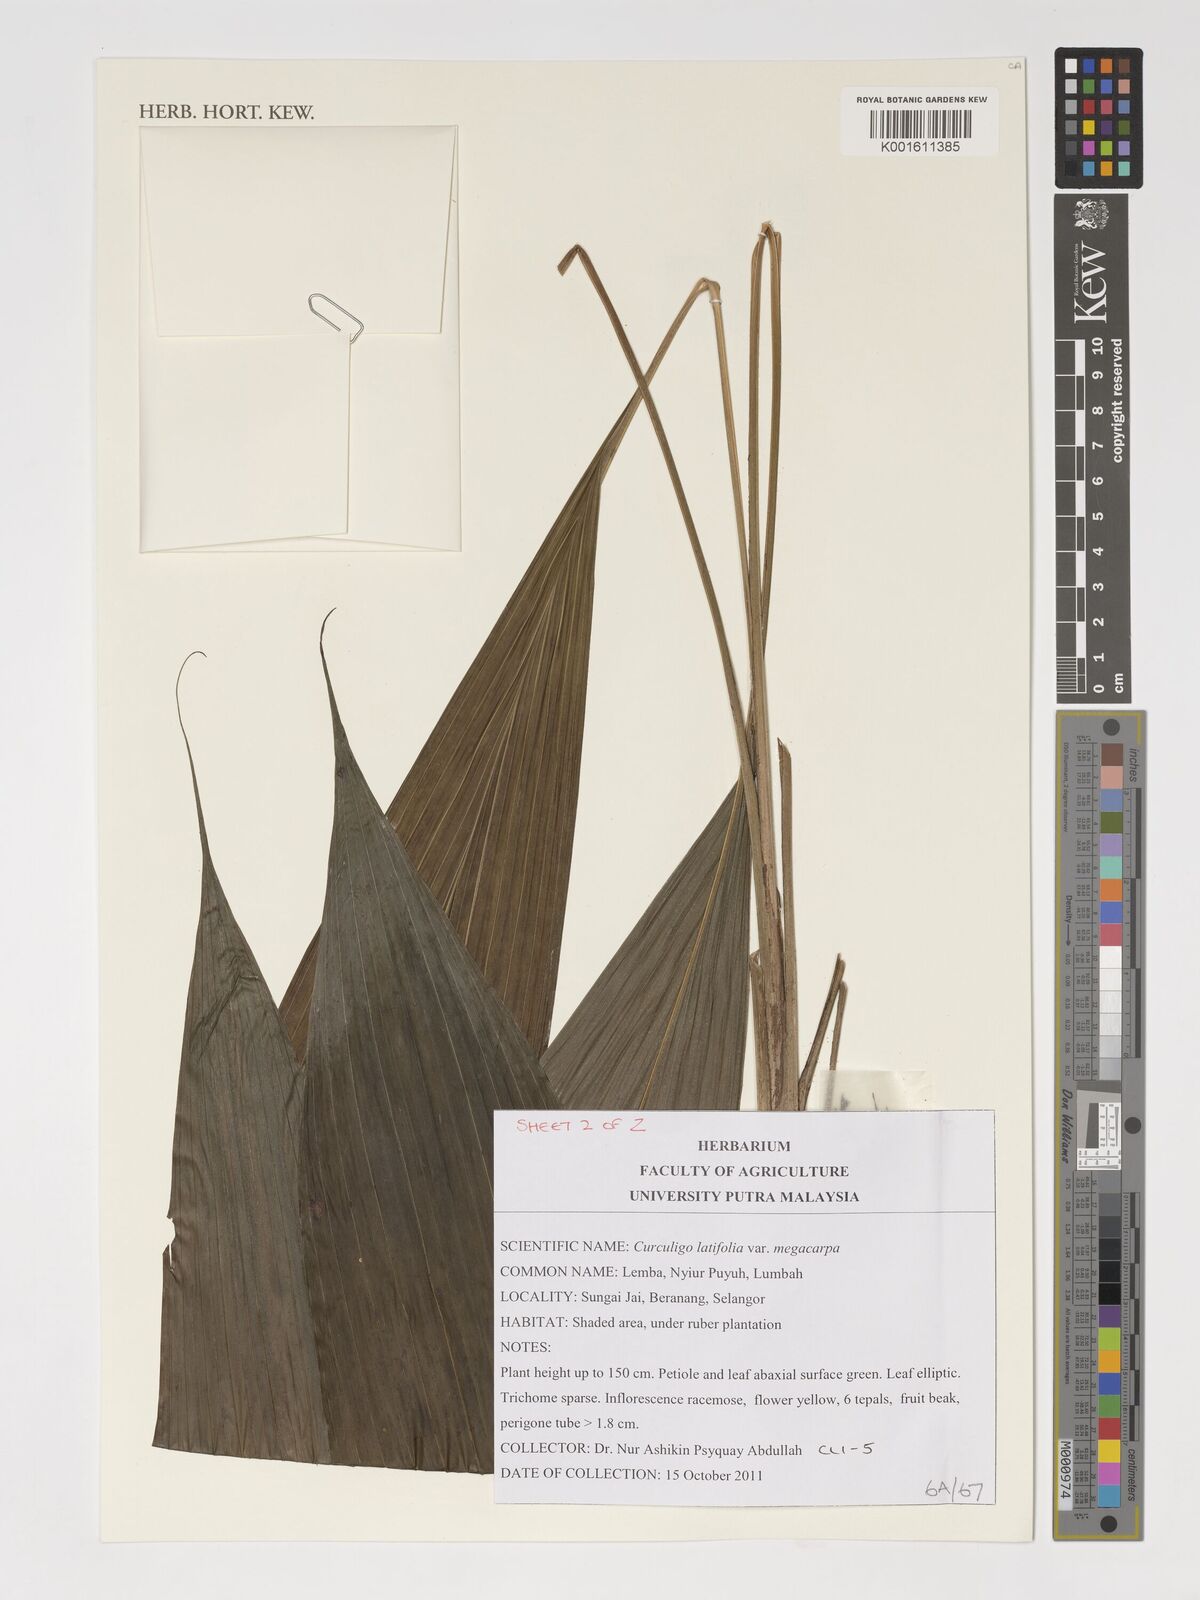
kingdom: Plantae
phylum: Tracheophyta
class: Liliopsida
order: Asparagales
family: Hypoxidaceae
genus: Curculigo
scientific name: Curculigo latifolia
